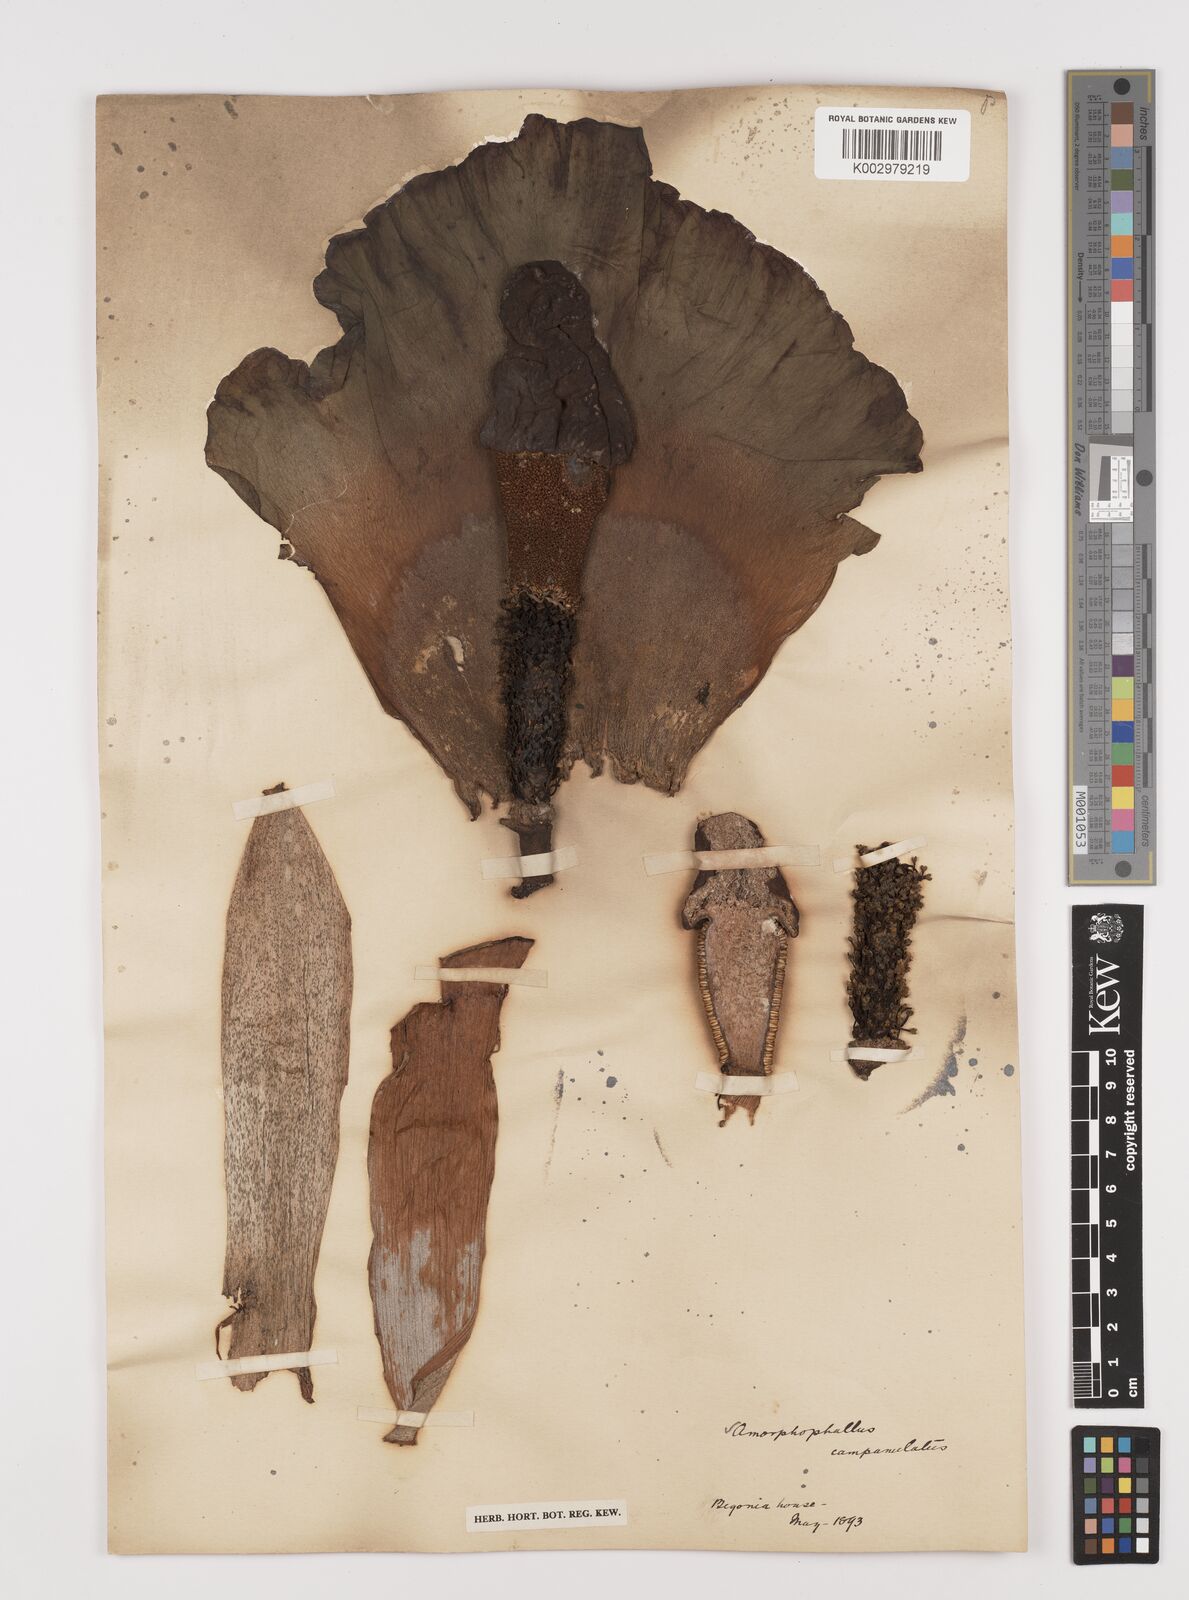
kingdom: Plantae
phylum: Tracheophyta
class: Liliopsida
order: Alismatales
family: Araceae
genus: Amorphophallus
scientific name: Amorphophallus paeoniifolius
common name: Telinga-potato
